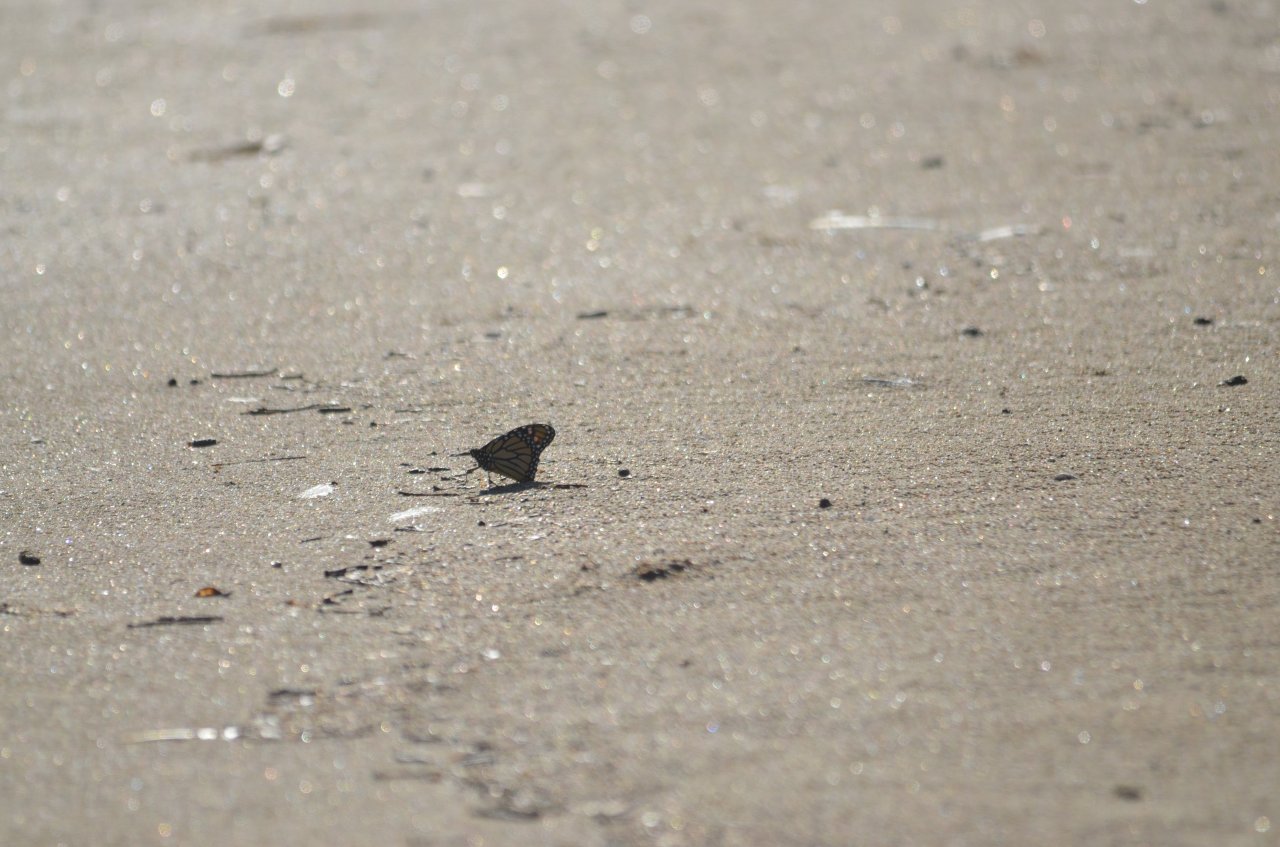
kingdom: Animalia
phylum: Arthropoda
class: Insecta
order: Lepidoptera
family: Nymphalidae
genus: Danaus
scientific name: Danaus plexippus
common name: Monarch
